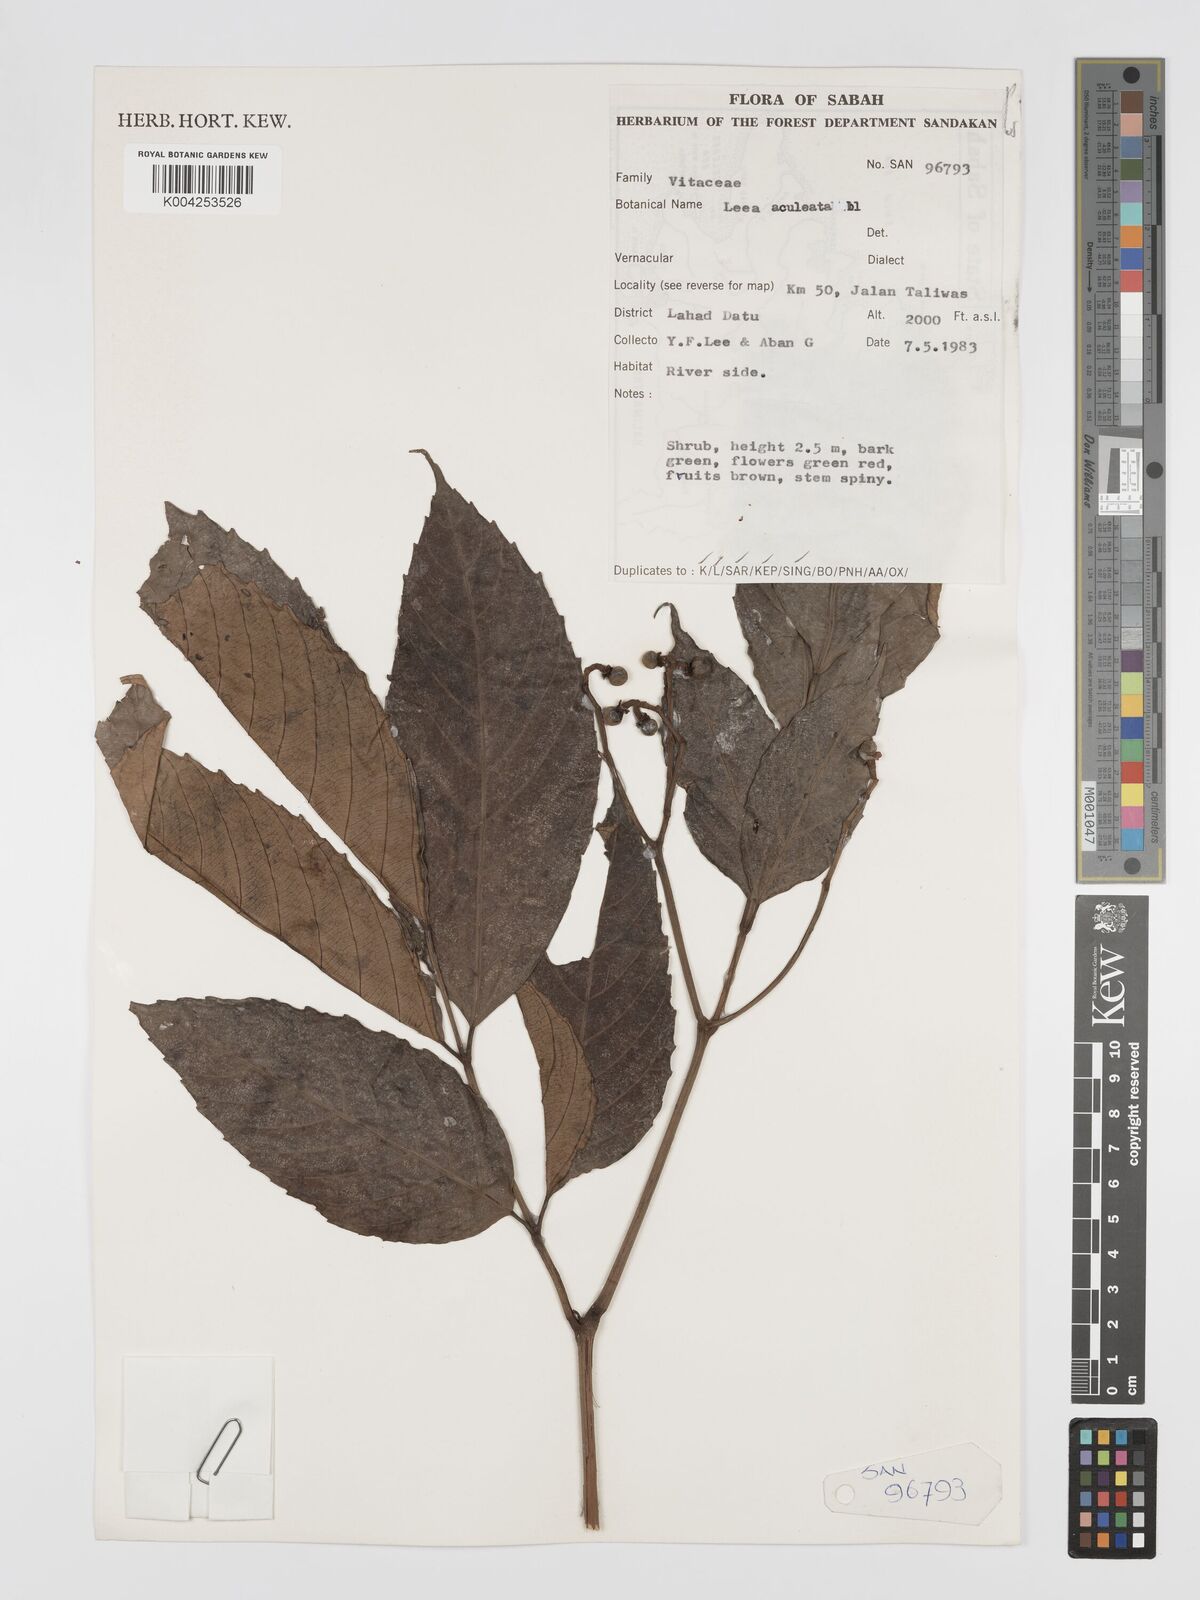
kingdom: Plantae
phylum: Tracheophyta
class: Magnoliopsida
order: Vitales
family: Vitaceae
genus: Leea
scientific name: Leea aculeata
